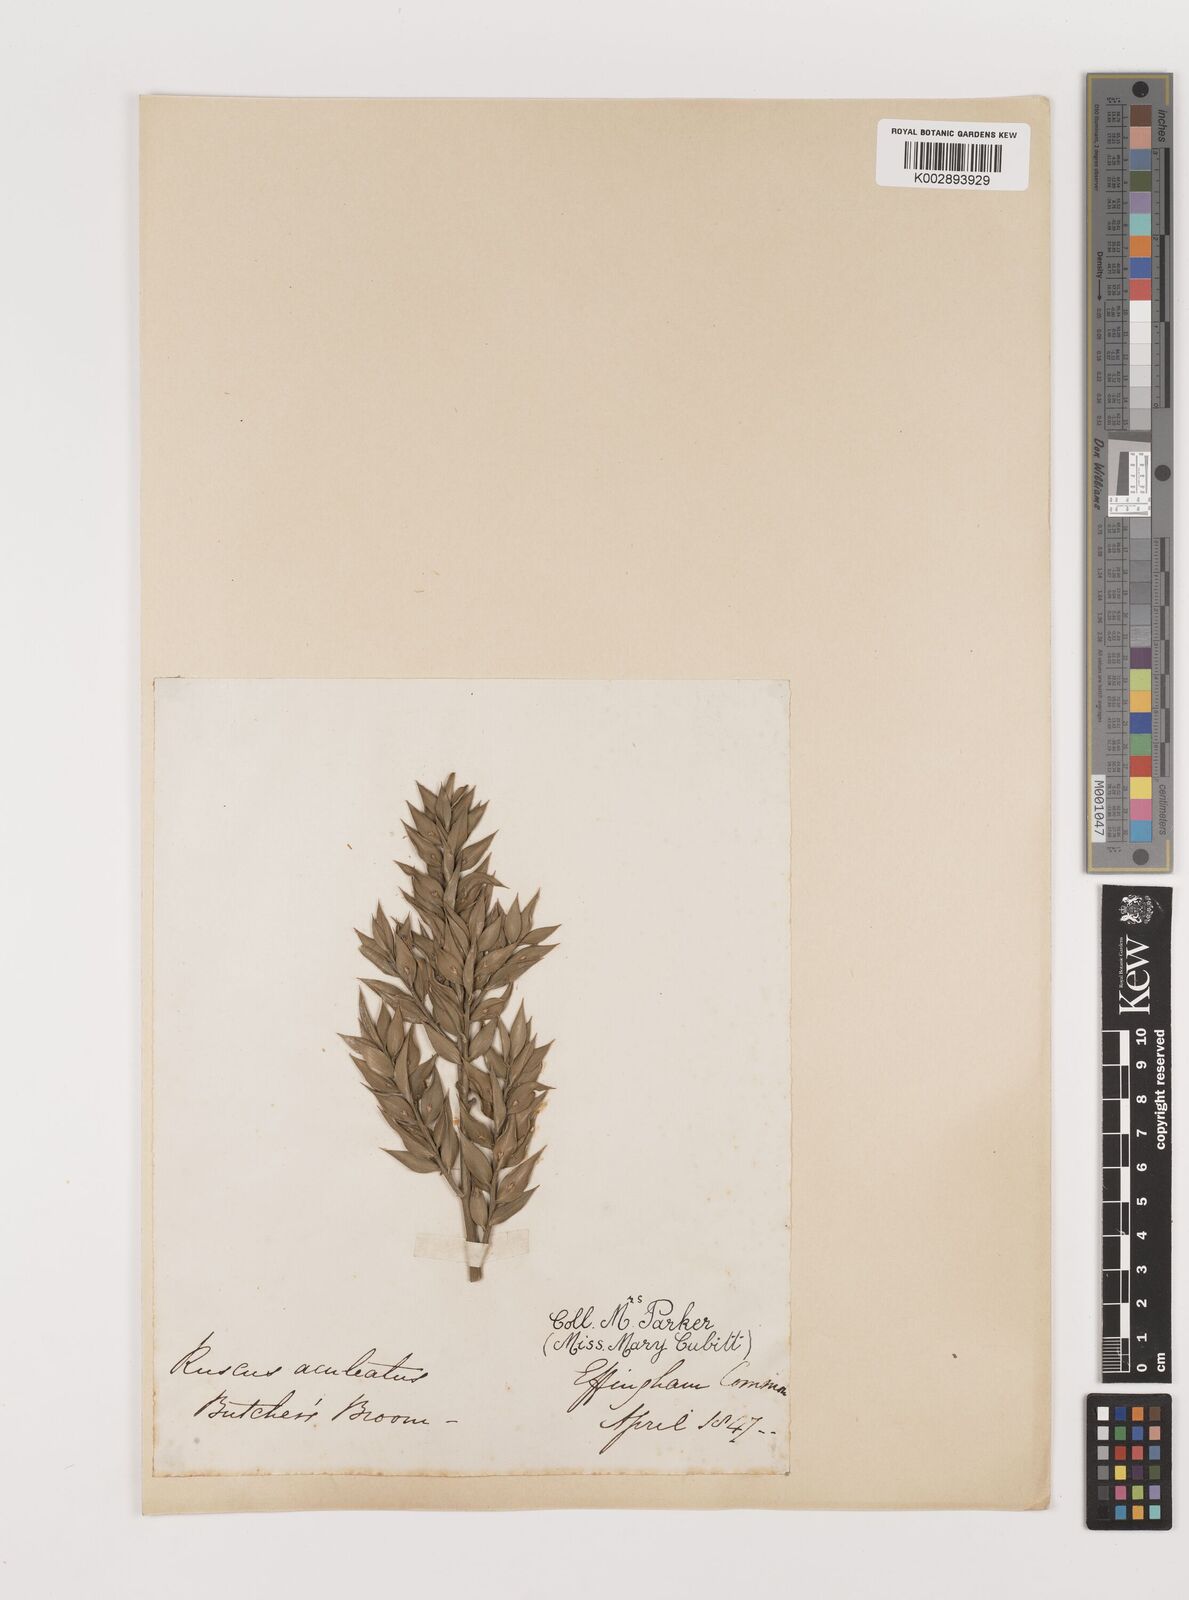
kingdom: Plantae
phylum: Tracheophyta
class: Liliopsida
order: Asparagales
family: Asparagaceae
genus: Ruscus
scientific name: Ruscus aculeatus
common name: Butcher's-broom
